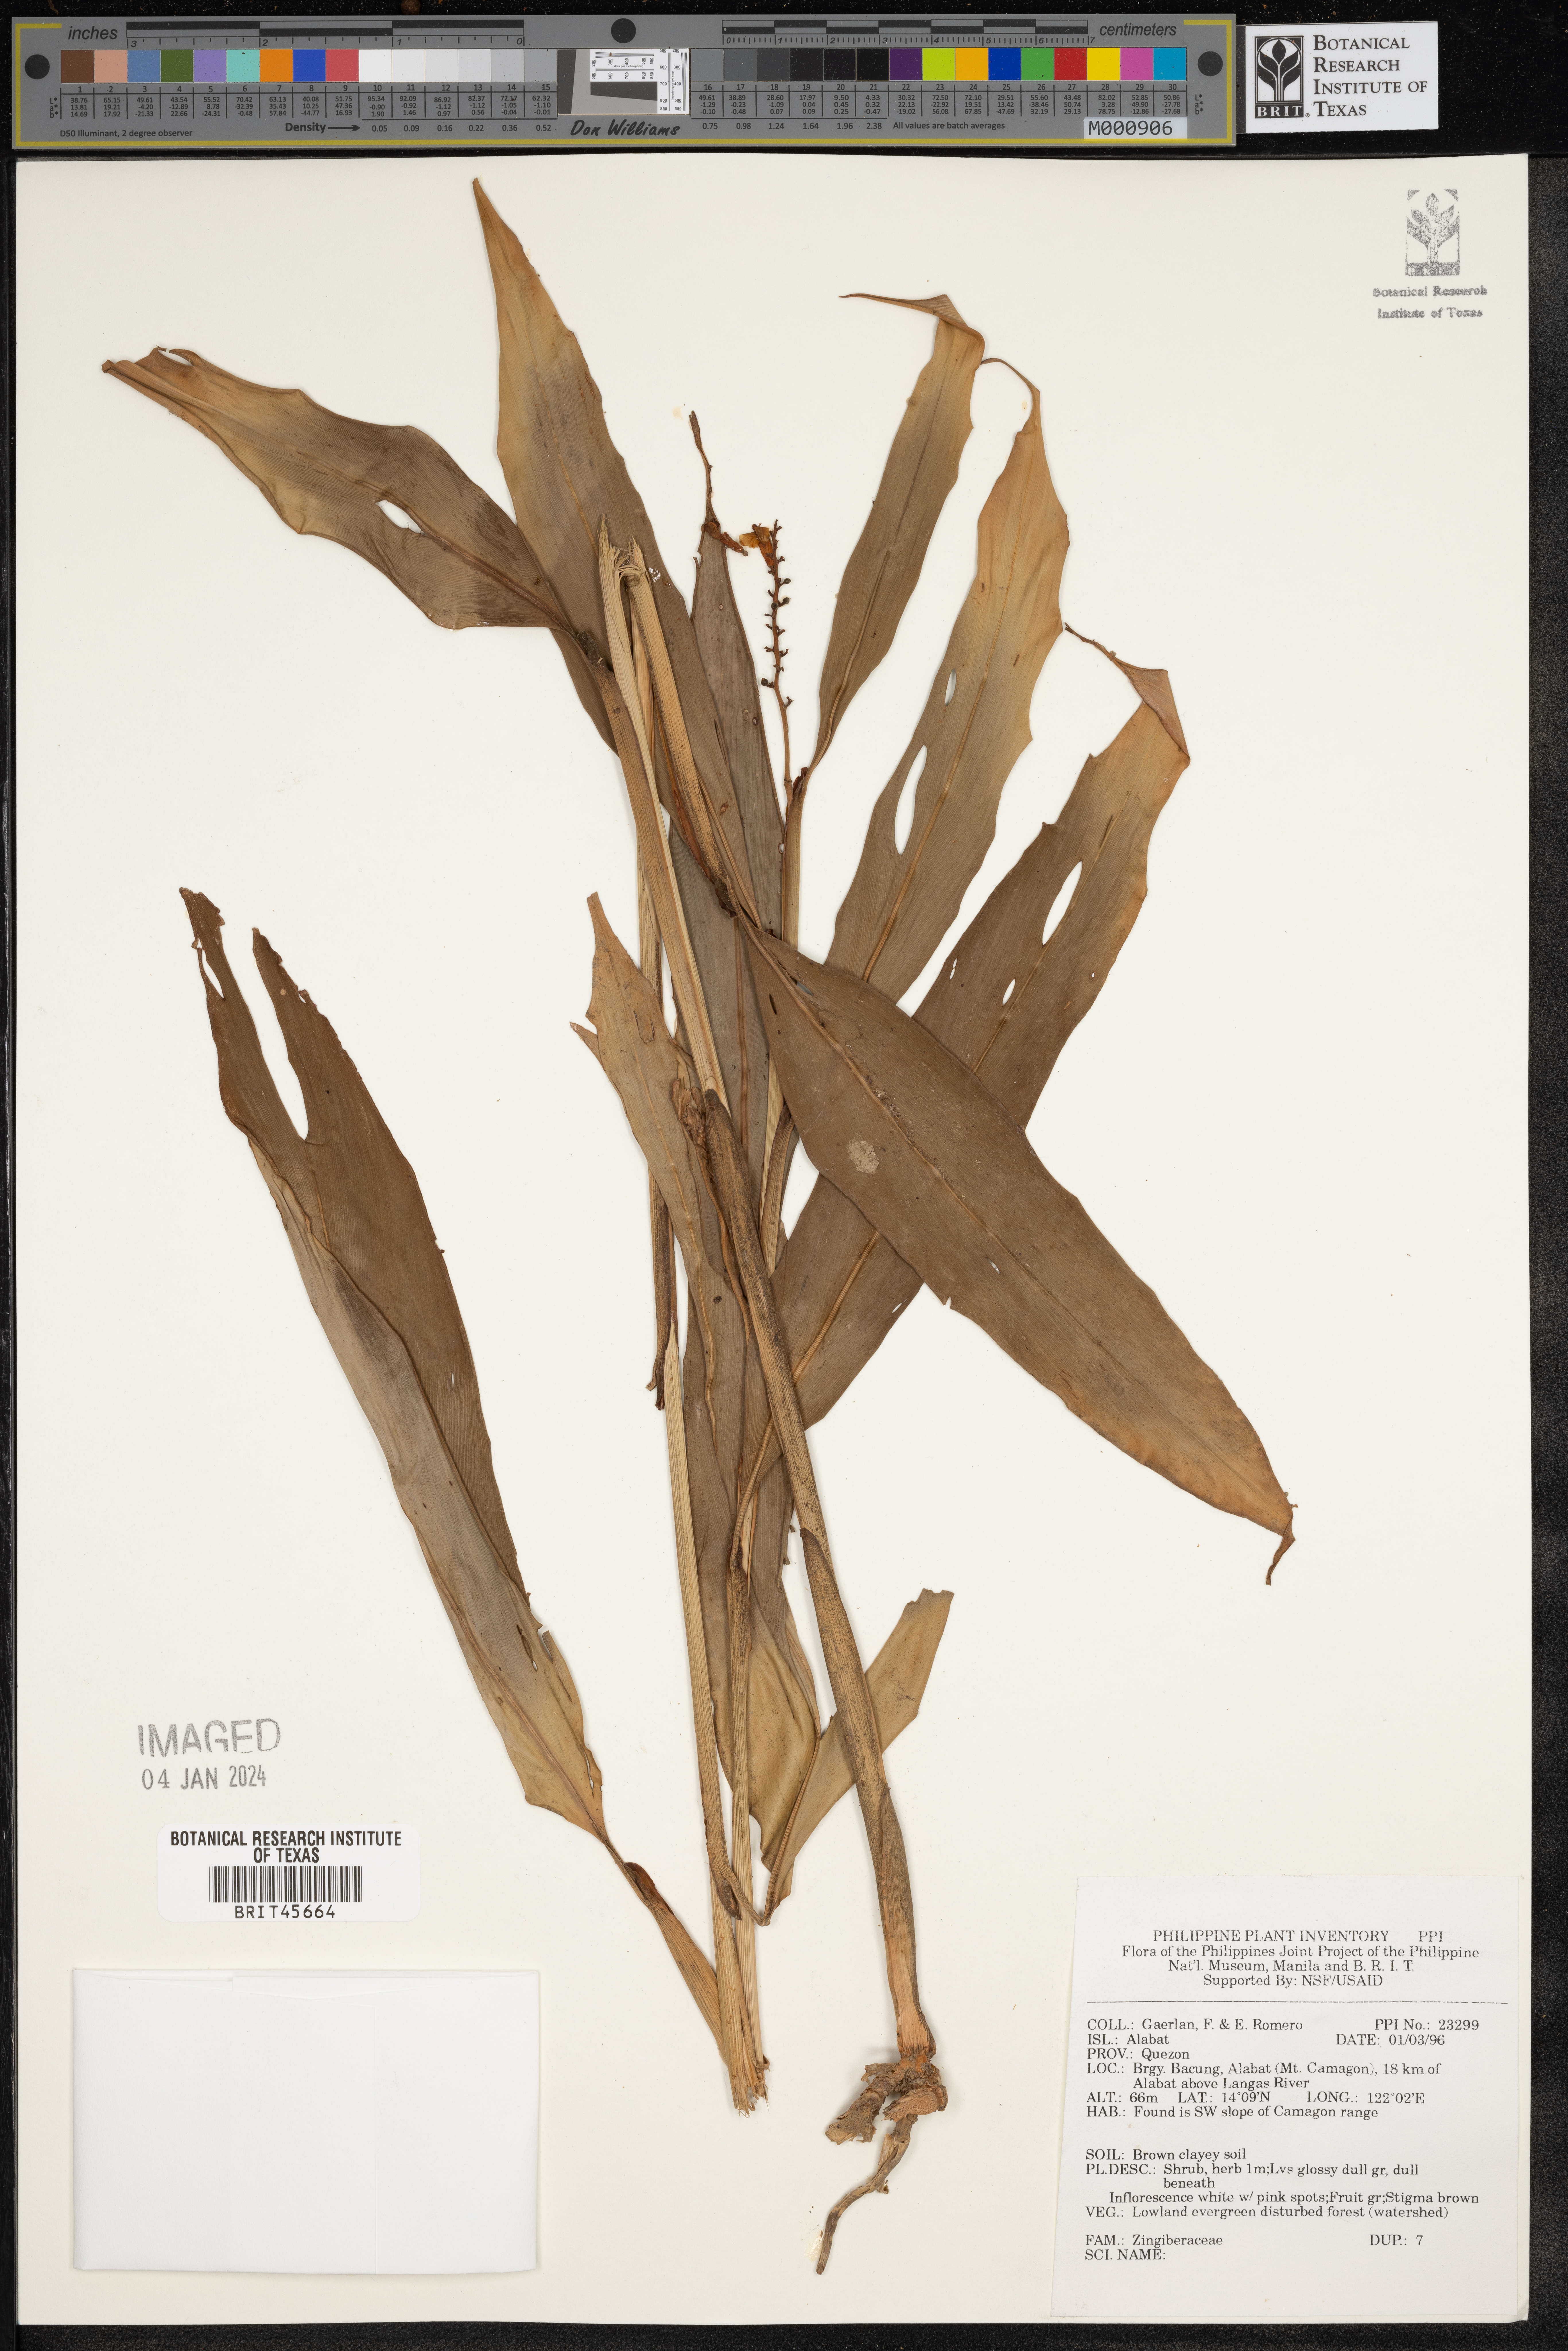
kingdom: Plantae
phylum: Tracheophyta
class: Liliopsida
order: Zingiberales
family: Zingiberaceae
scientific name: Zingiberaceae
